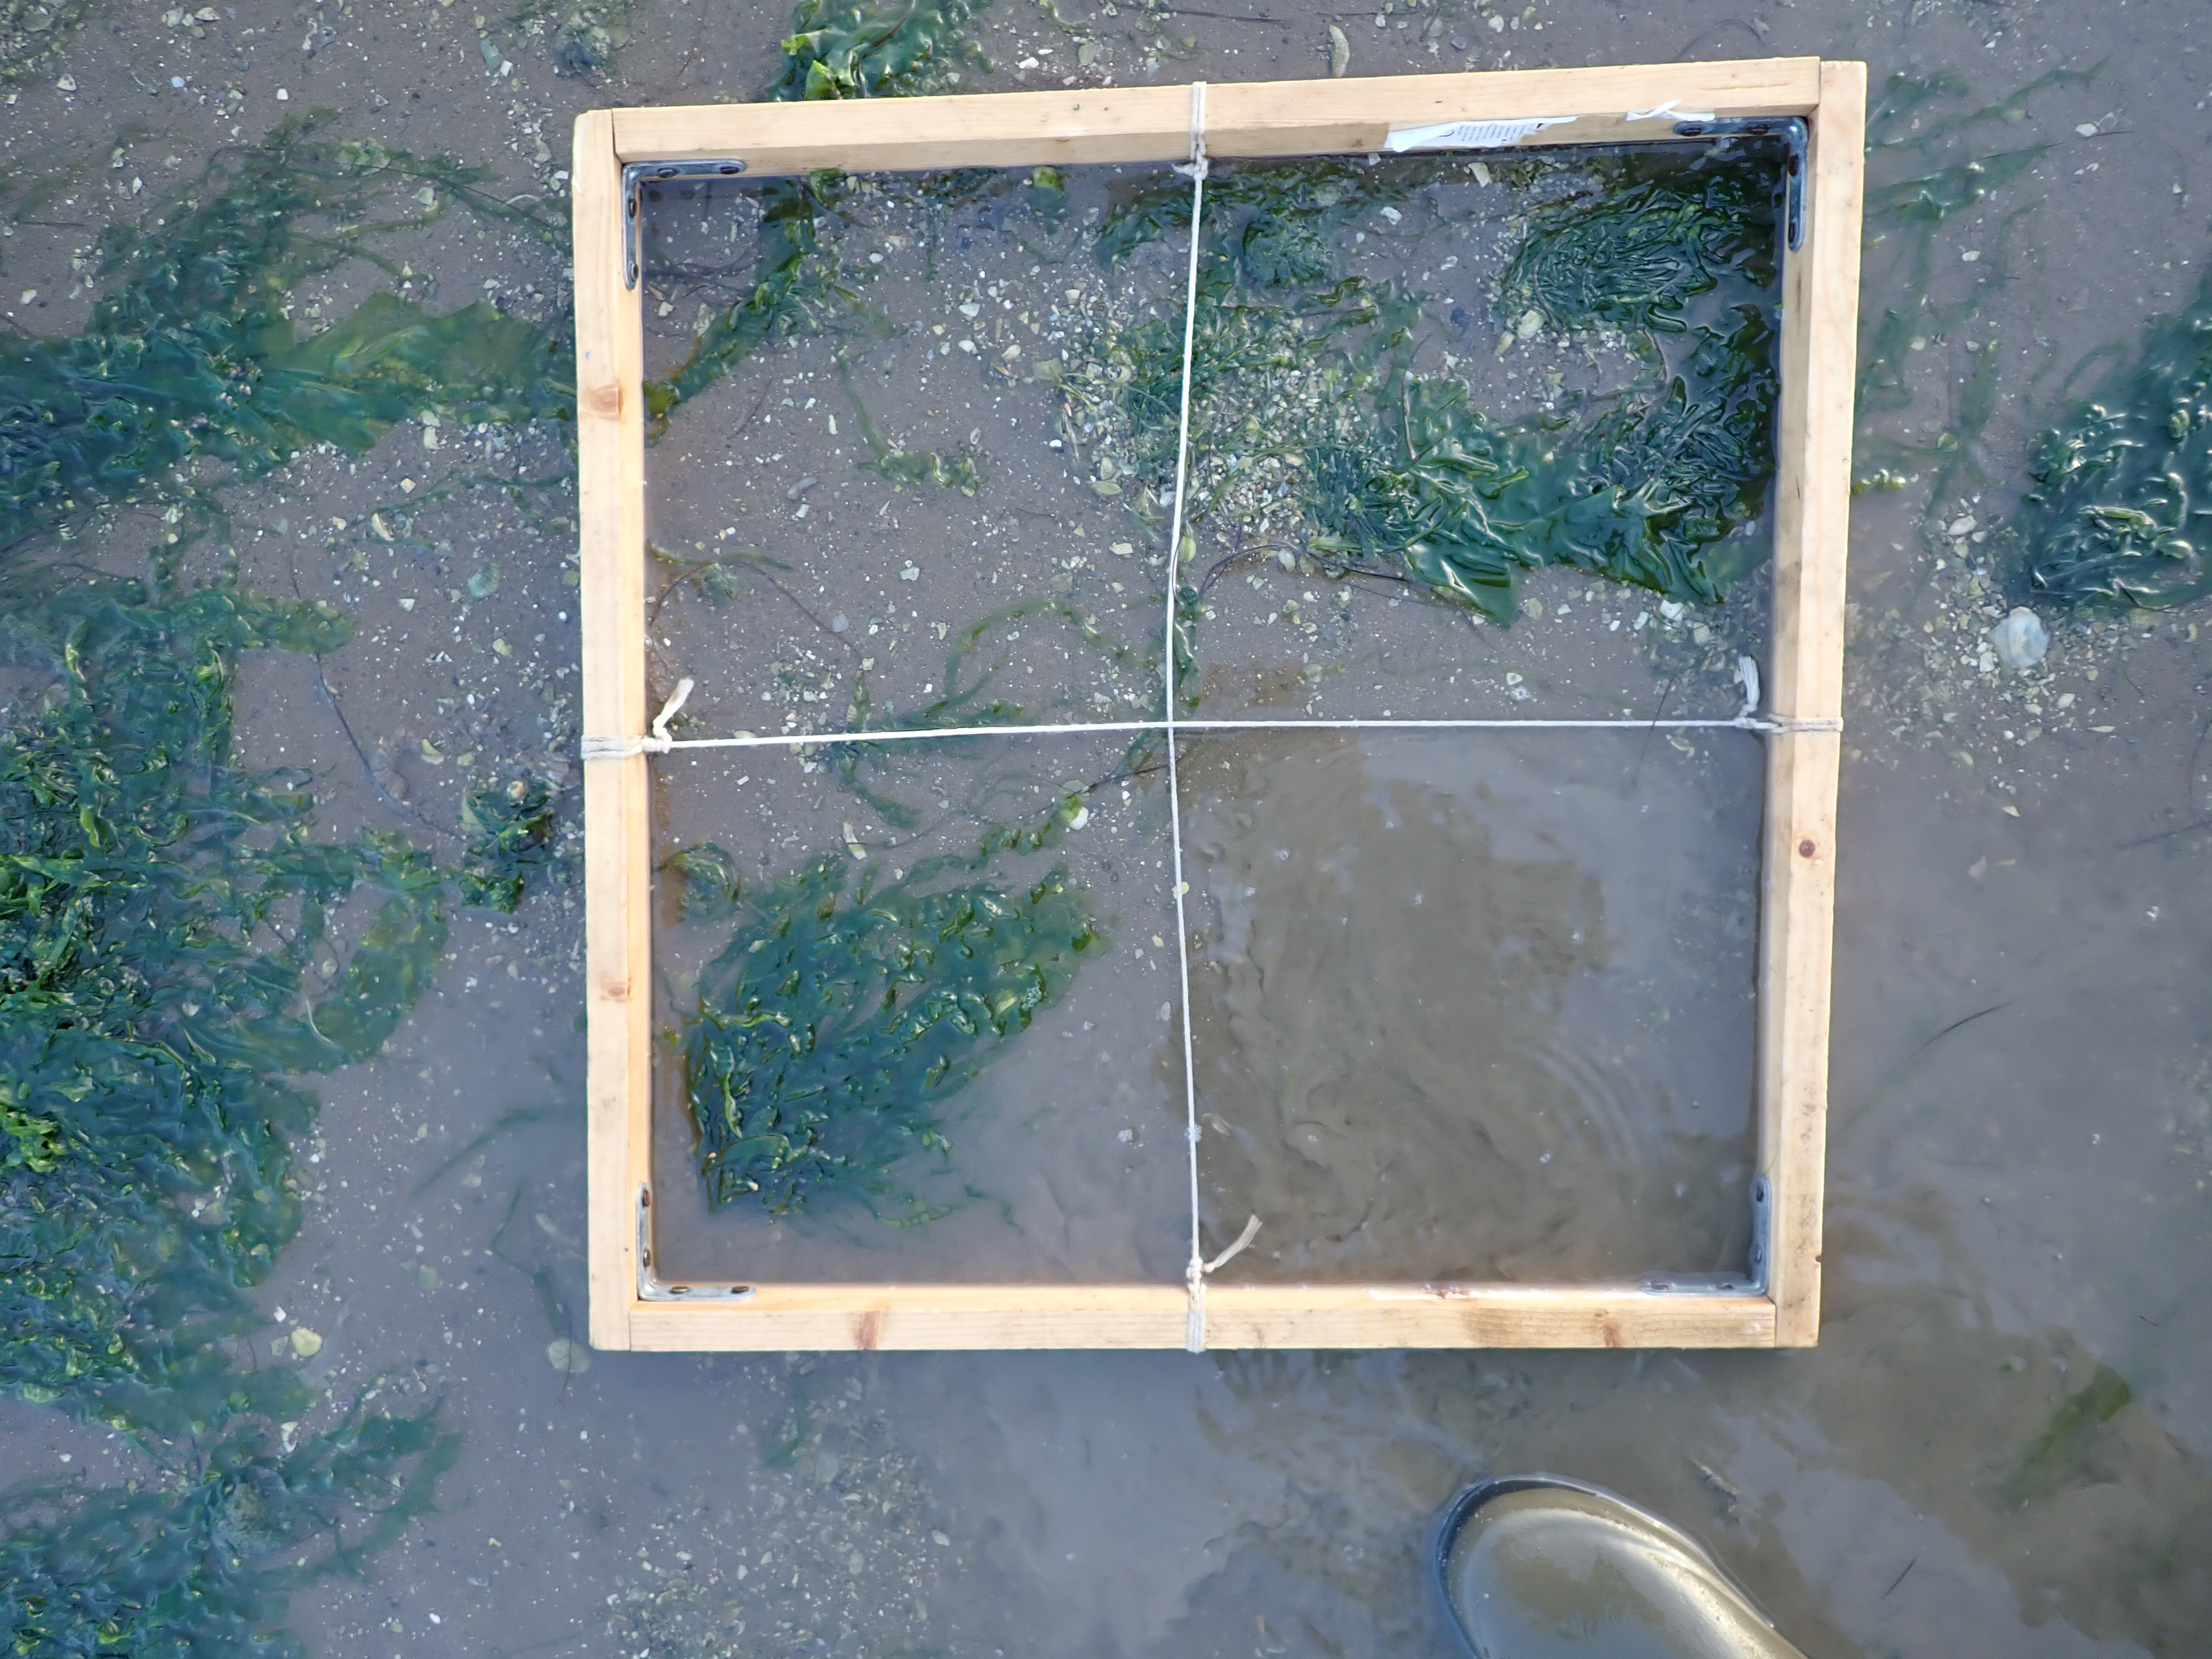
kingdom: Plantae
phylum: Chlorophyta
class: Ulvophyceae
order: Ulvales
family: Ulvaceae
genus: Ulva
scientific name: Ulva
